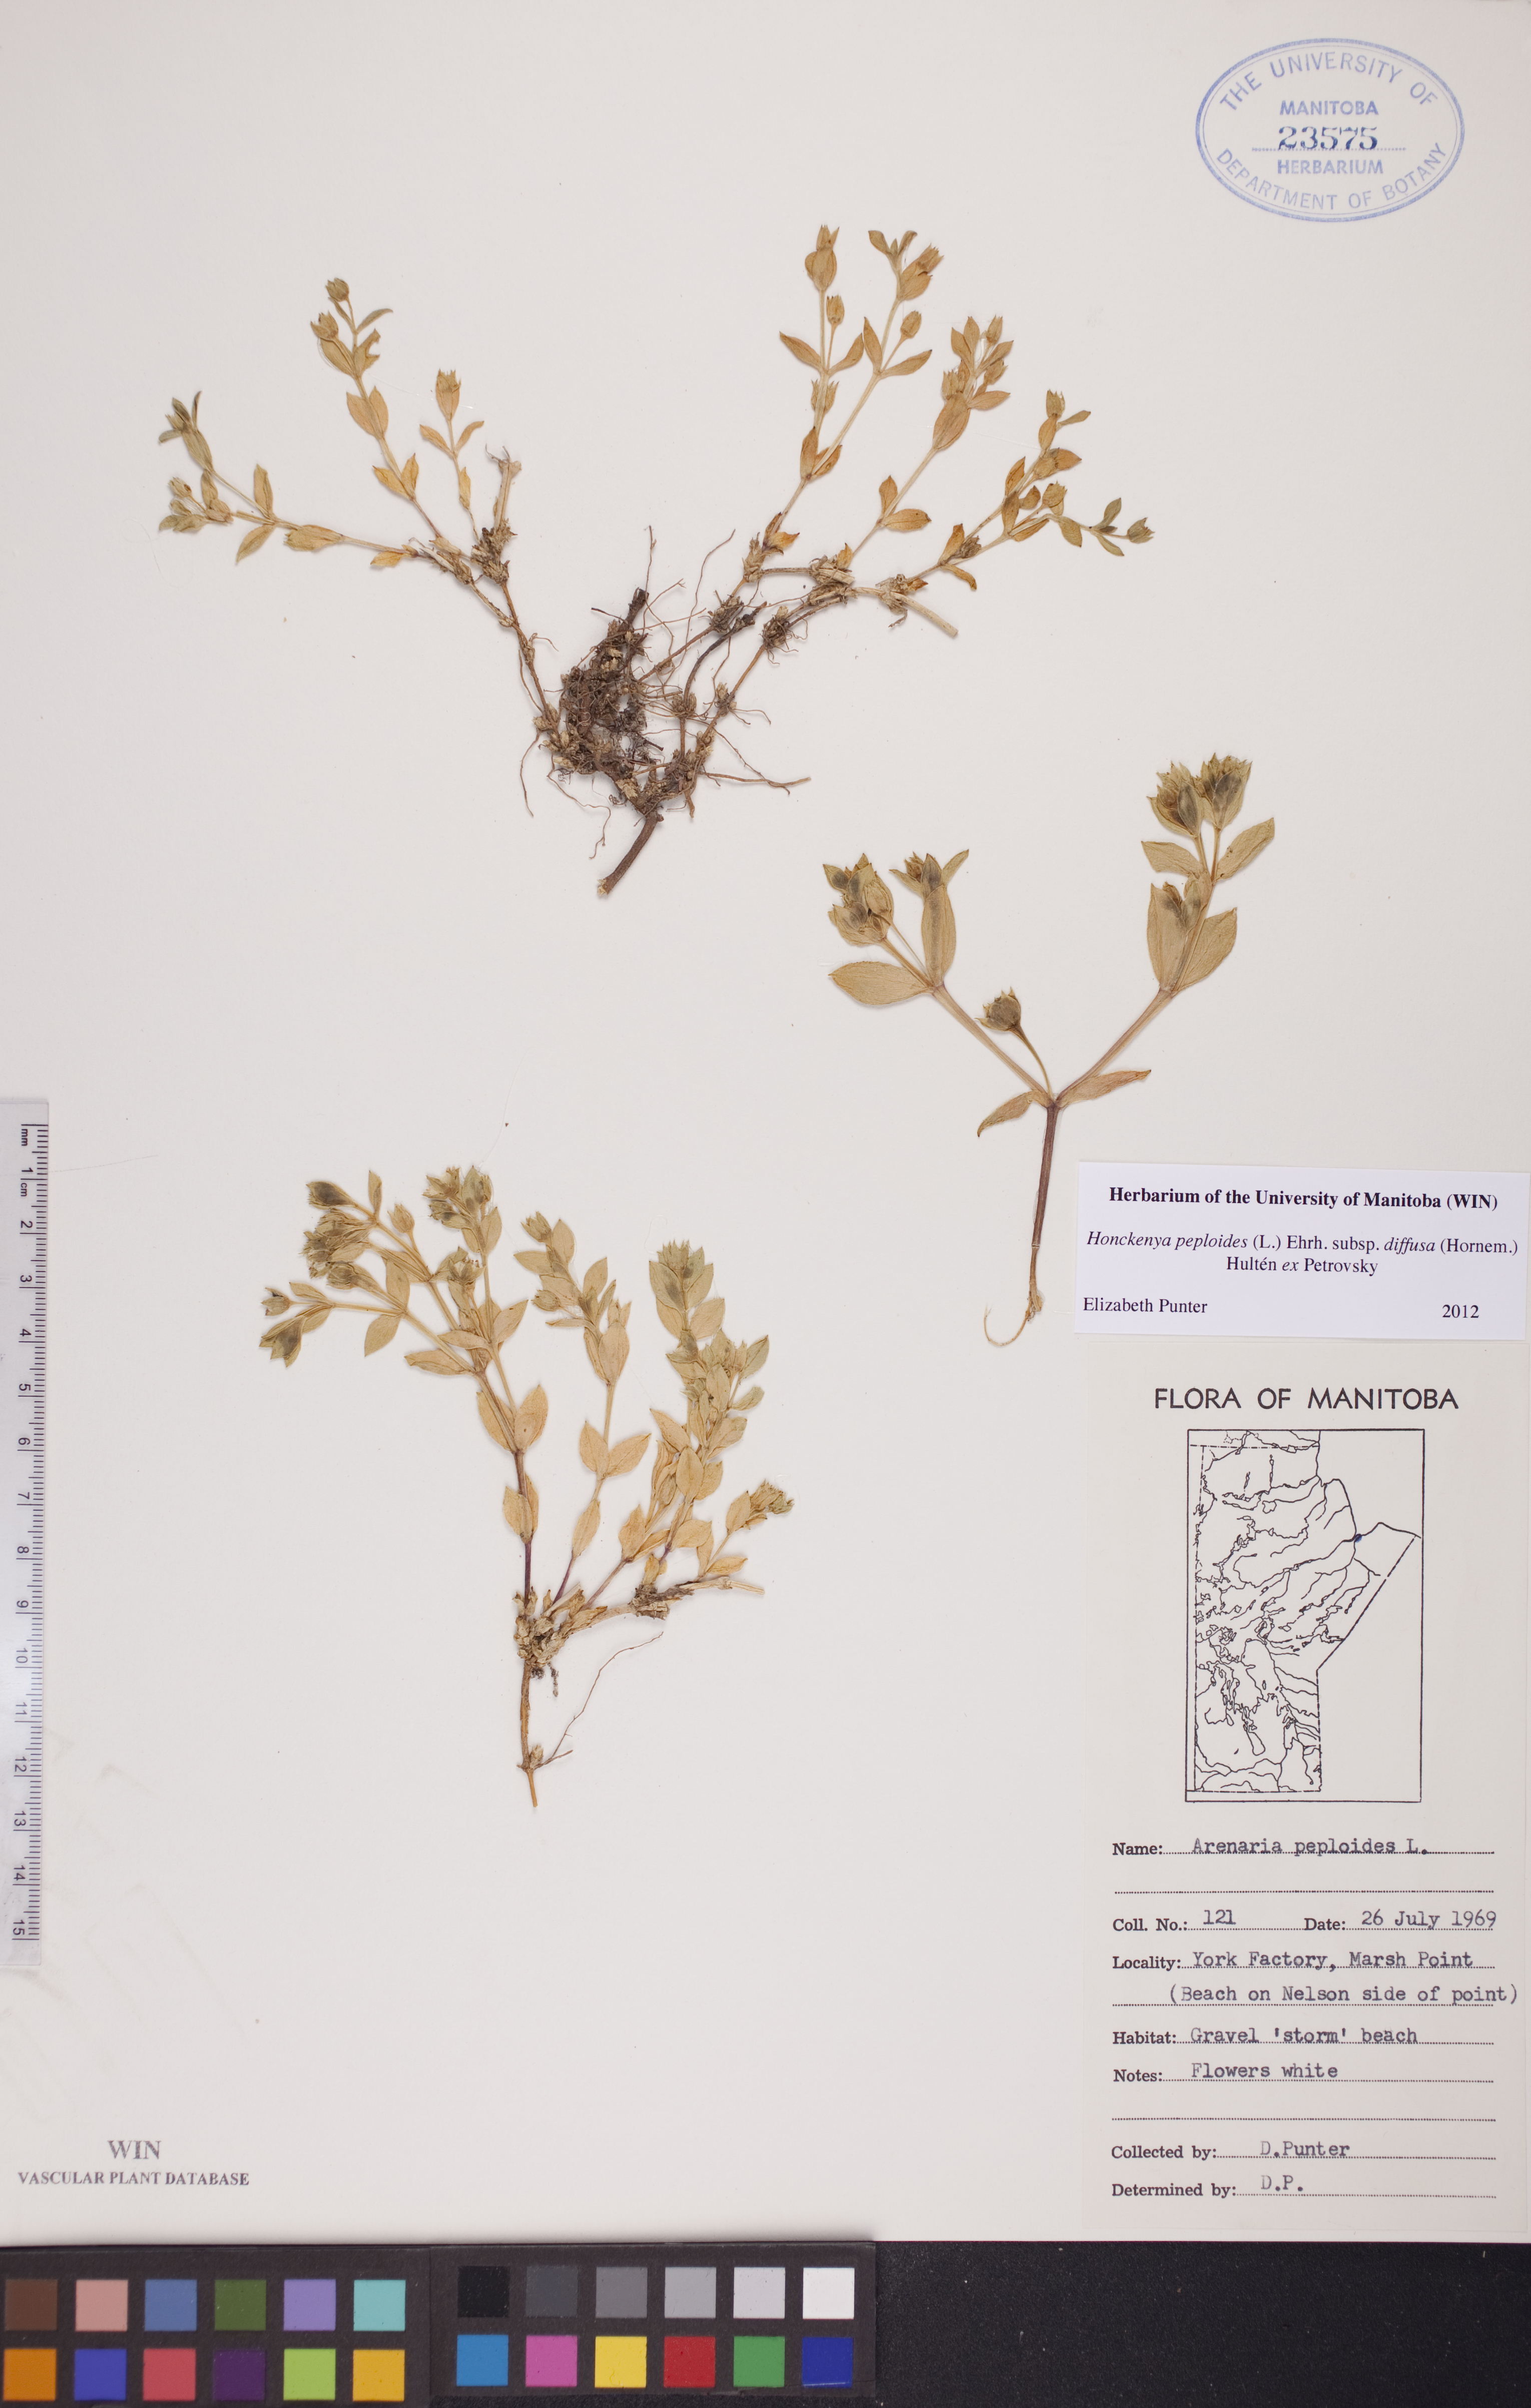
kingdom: Plantae
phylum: Tracheophyta
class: Magnoliopsida
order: Caryophyllales
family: Caryophyllaceae
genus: Honckenya
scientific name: Honckenya peploides
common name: Sea sandwort
